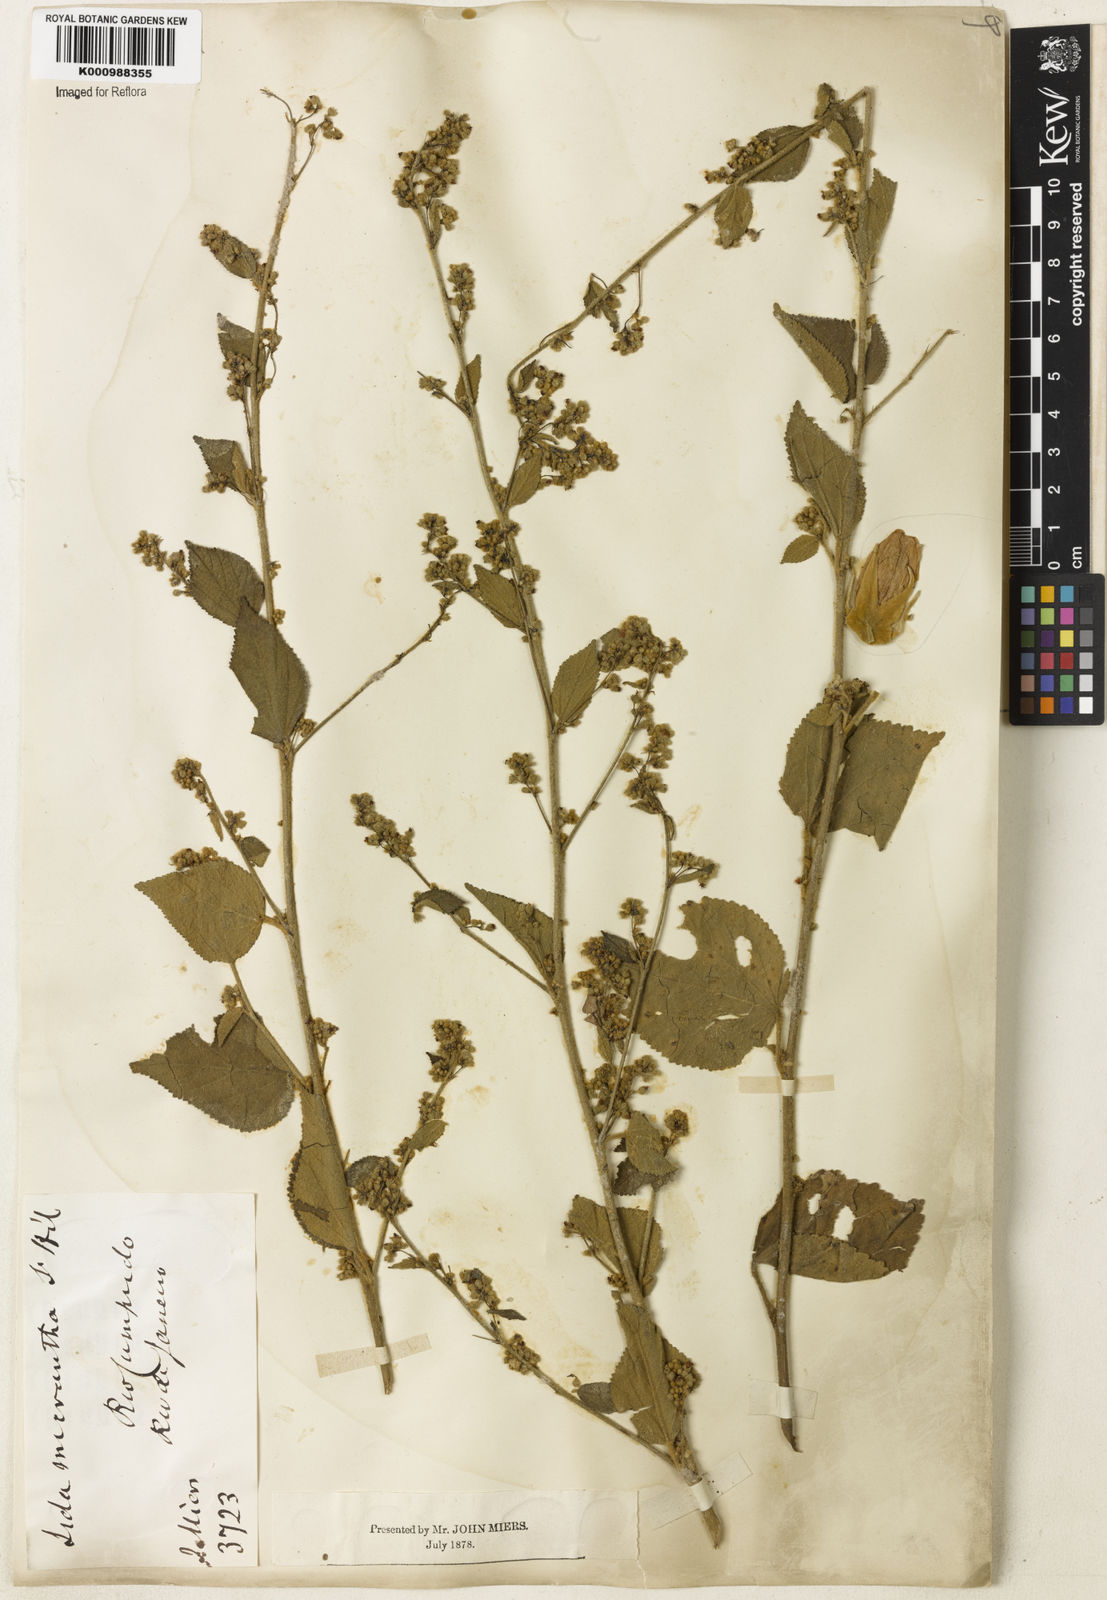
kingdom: Plantae
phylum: Tracheophyta
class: Magnoliopsida
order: Malvales
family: Malvaceae
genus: Sidastrum
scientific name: Sidastrum micranthum
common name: Dainty sandmallow
